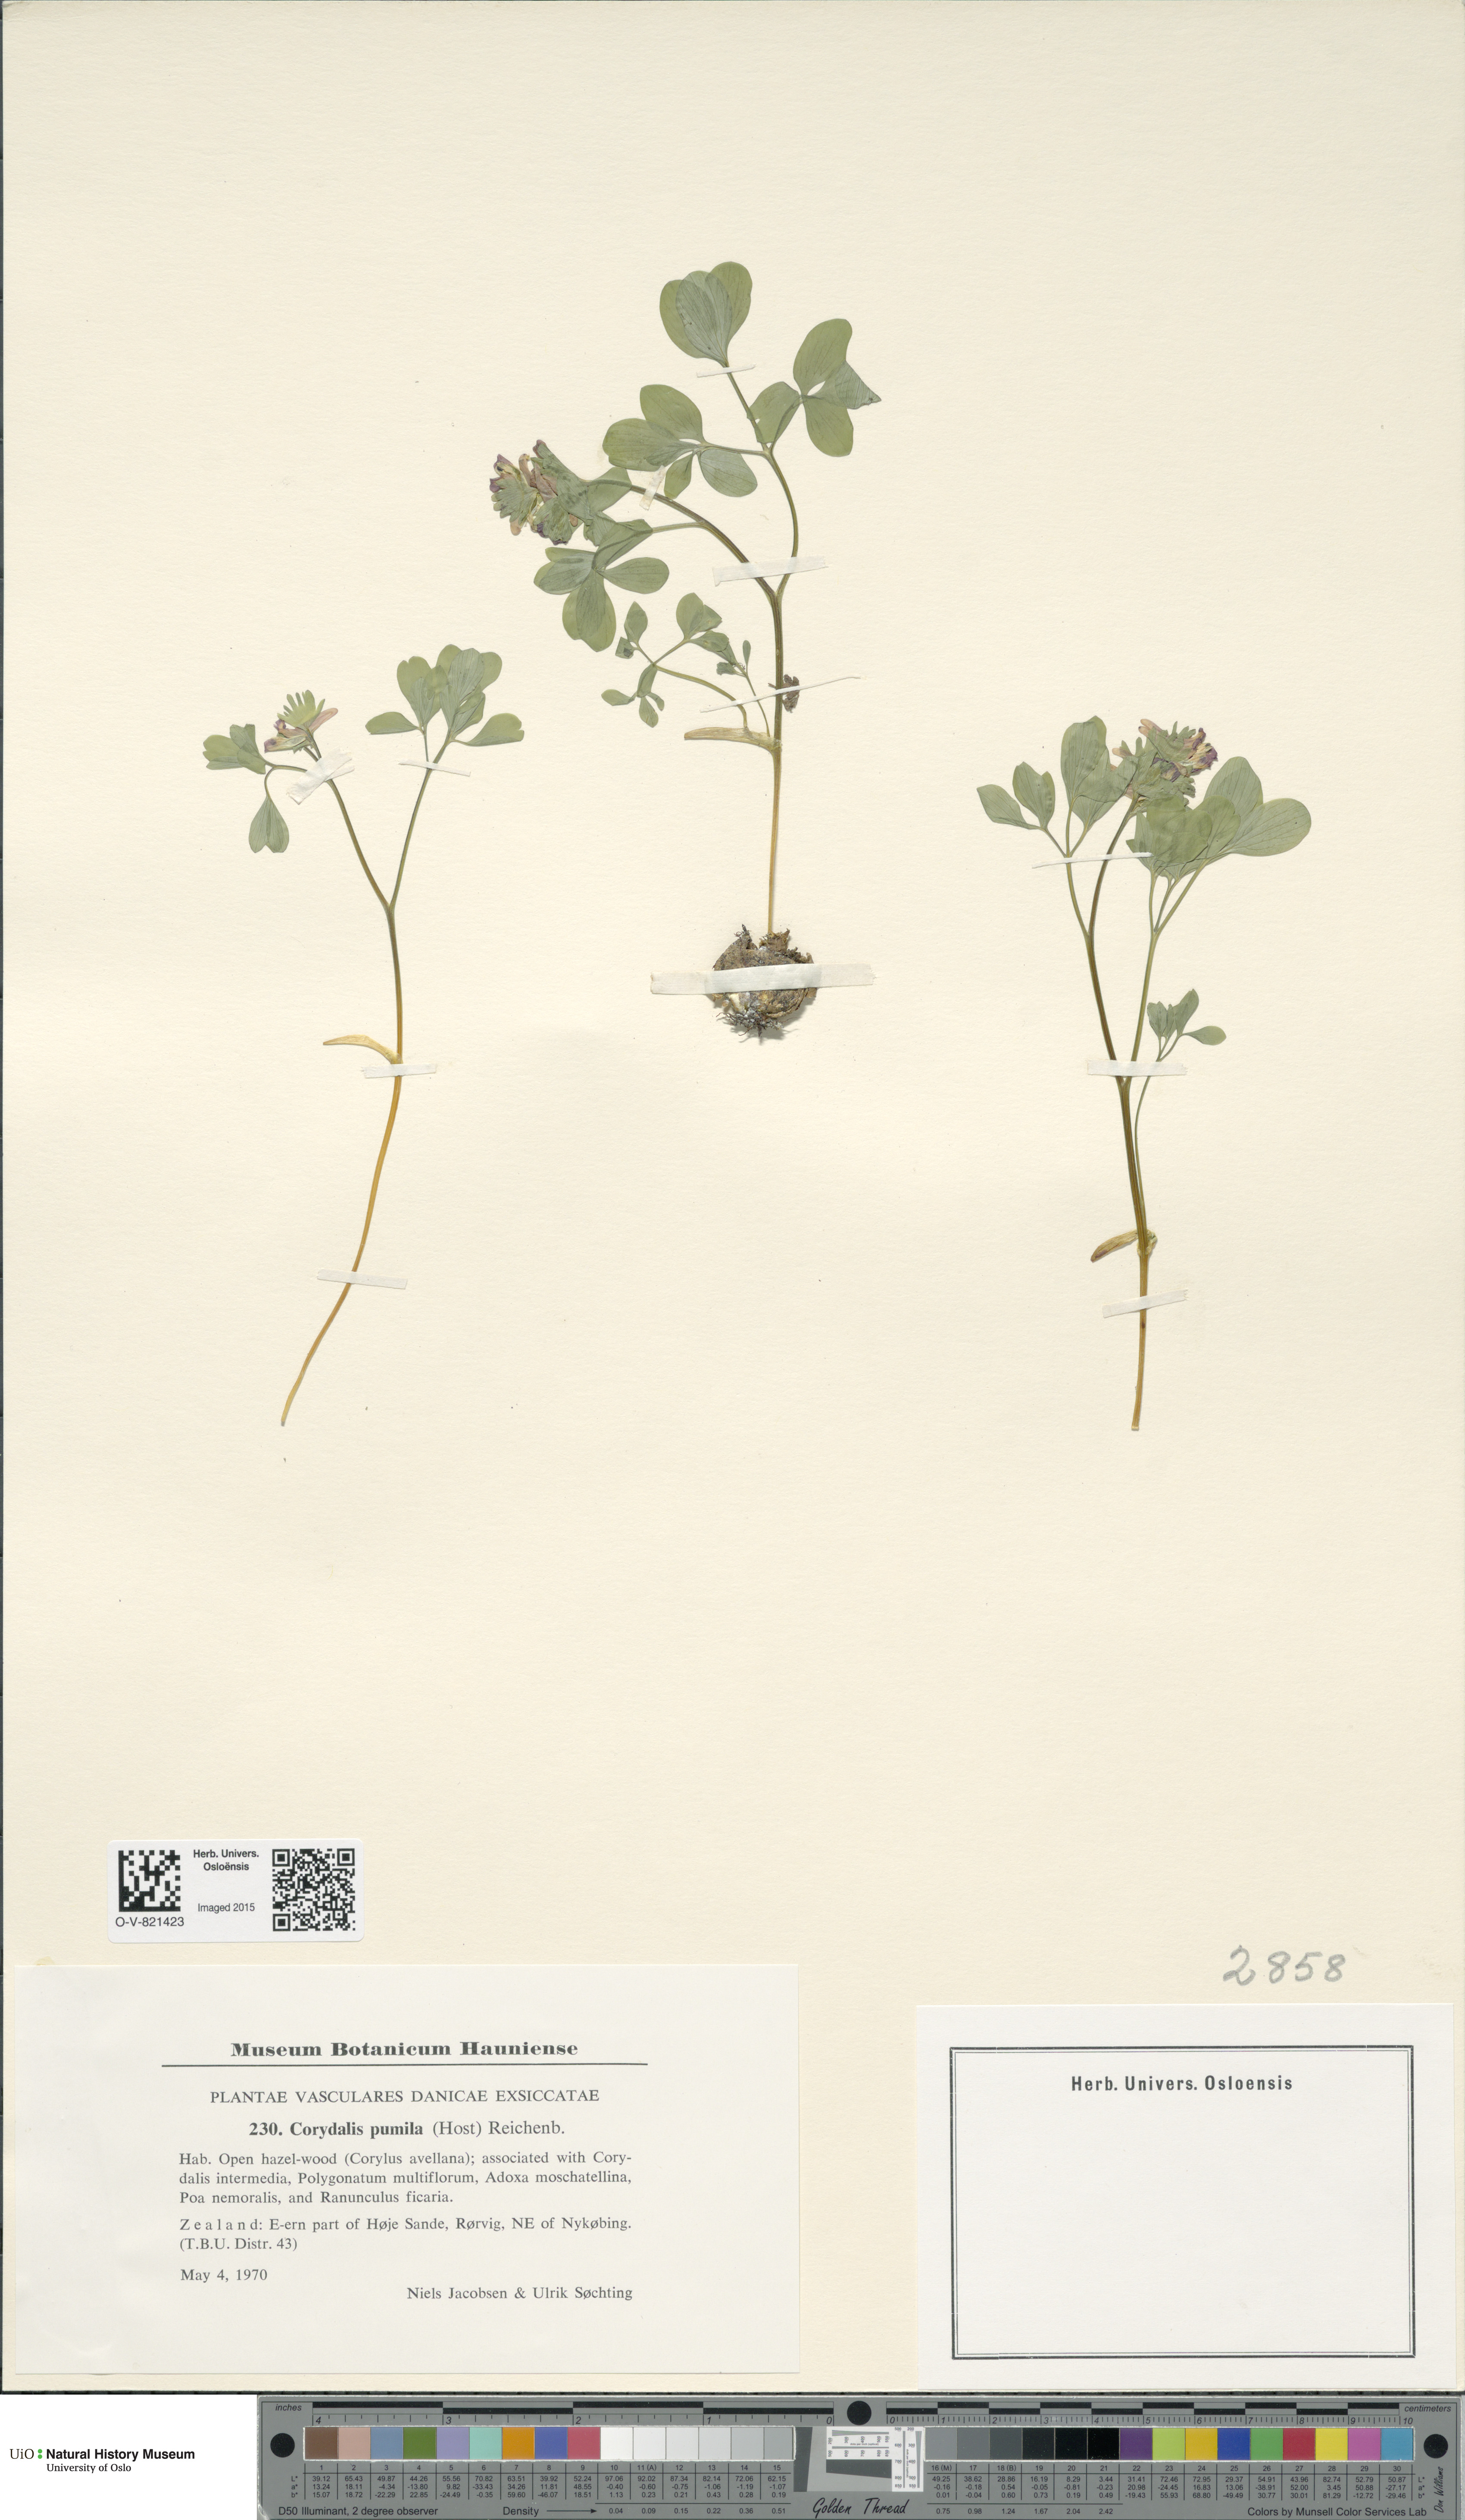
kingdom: Plantae
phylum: Tracheophyta
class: Magnoliopsida
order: Ranunculales
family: Papaveraceae
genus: Corydalis
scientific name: Corydalis pumila
